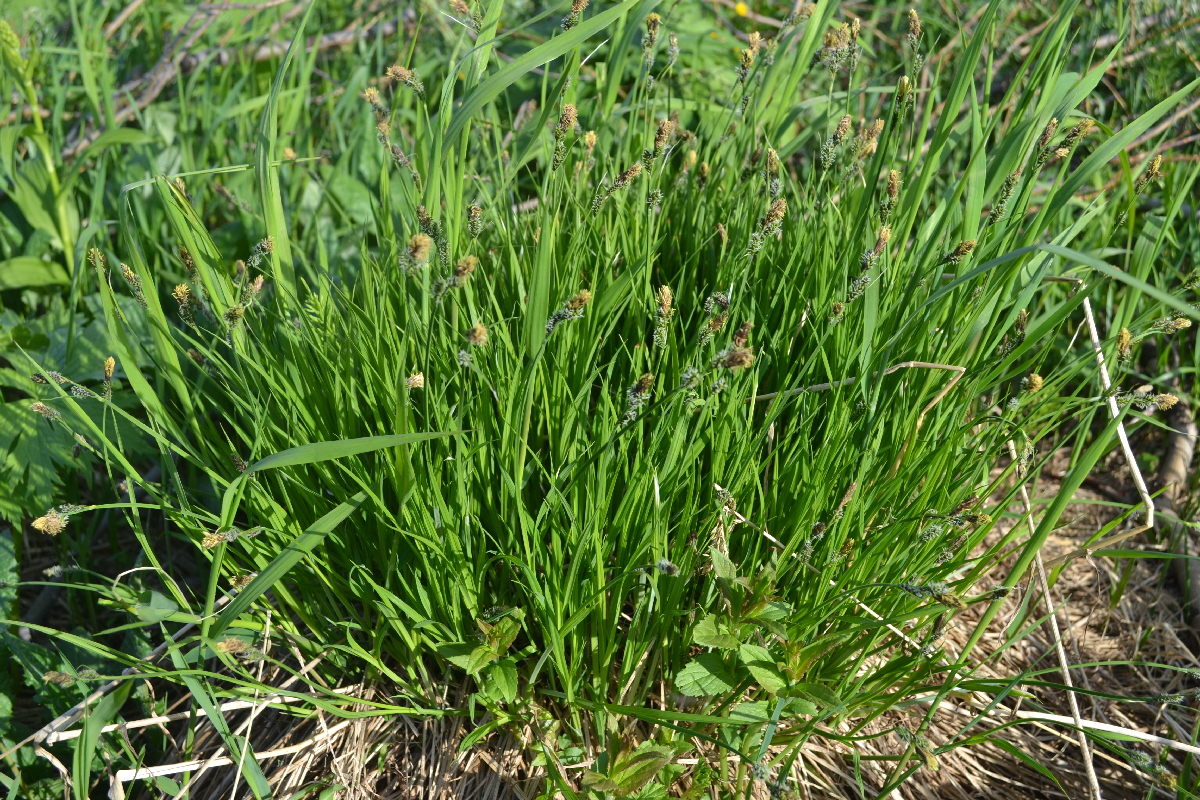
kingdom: Plantae
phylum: Tracheophyta
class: Liliopsida
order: Poales
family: Cyperaceae
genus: Carex
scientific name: Carex cespitosa
